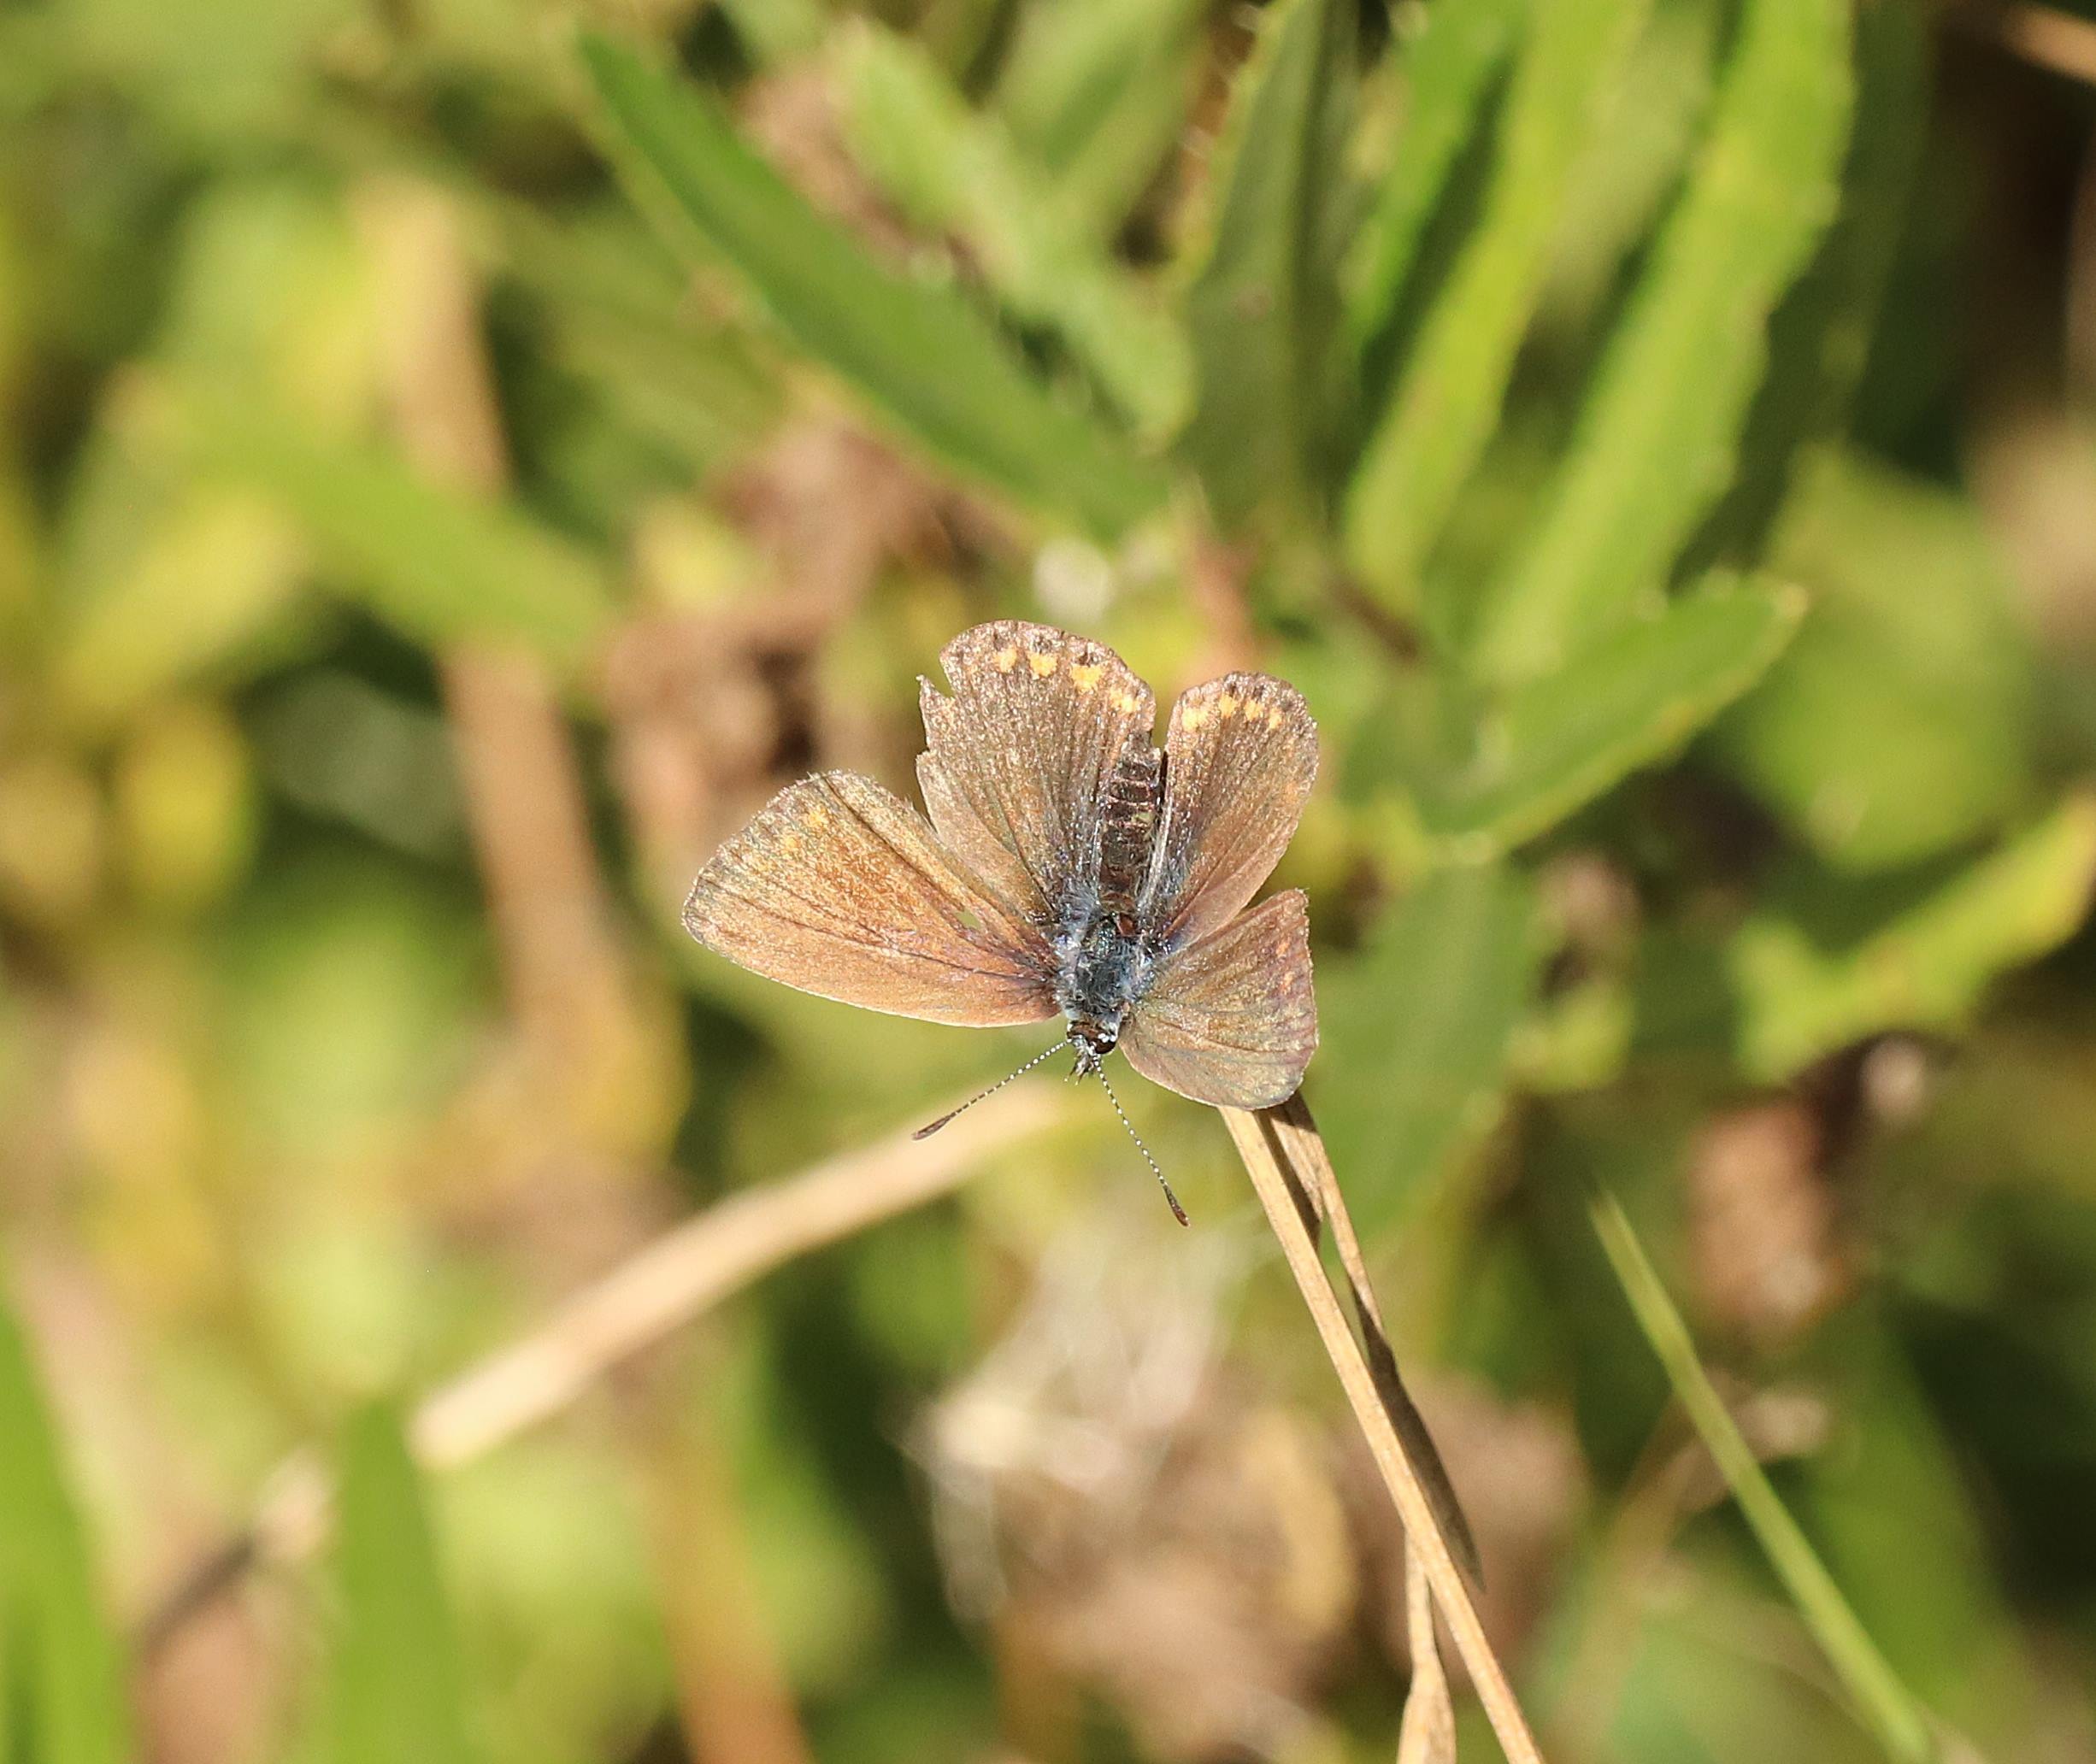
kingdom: Animalia
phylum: Arthropoda
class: Insecta
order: Lepidoptera
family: Lycaenidae
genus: Polyommatus
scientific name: Polyommatus icarus
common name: Almindelig blåfugl
